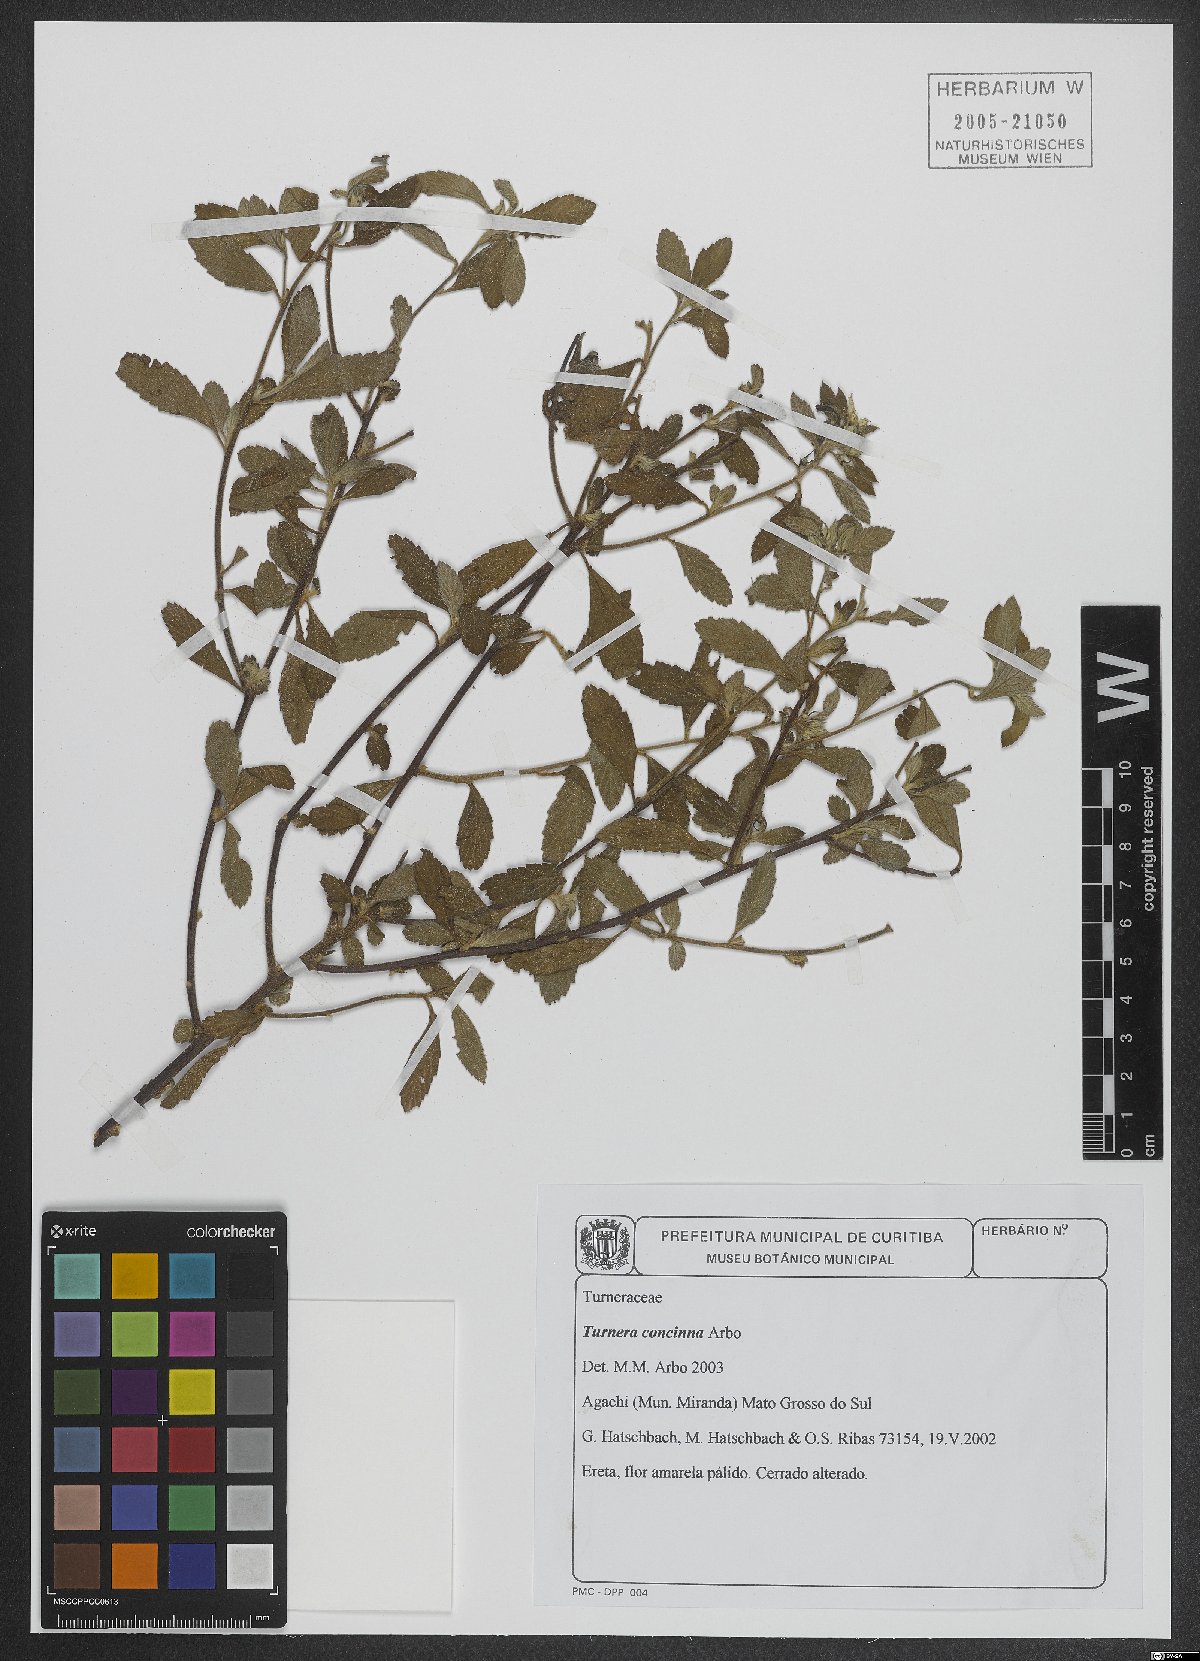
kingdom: Plantae
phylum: Tracheophyta
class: Magnoliopsida
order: Malpighiales
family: Turneraceae
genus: Turnera
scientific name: Turnera concinna
